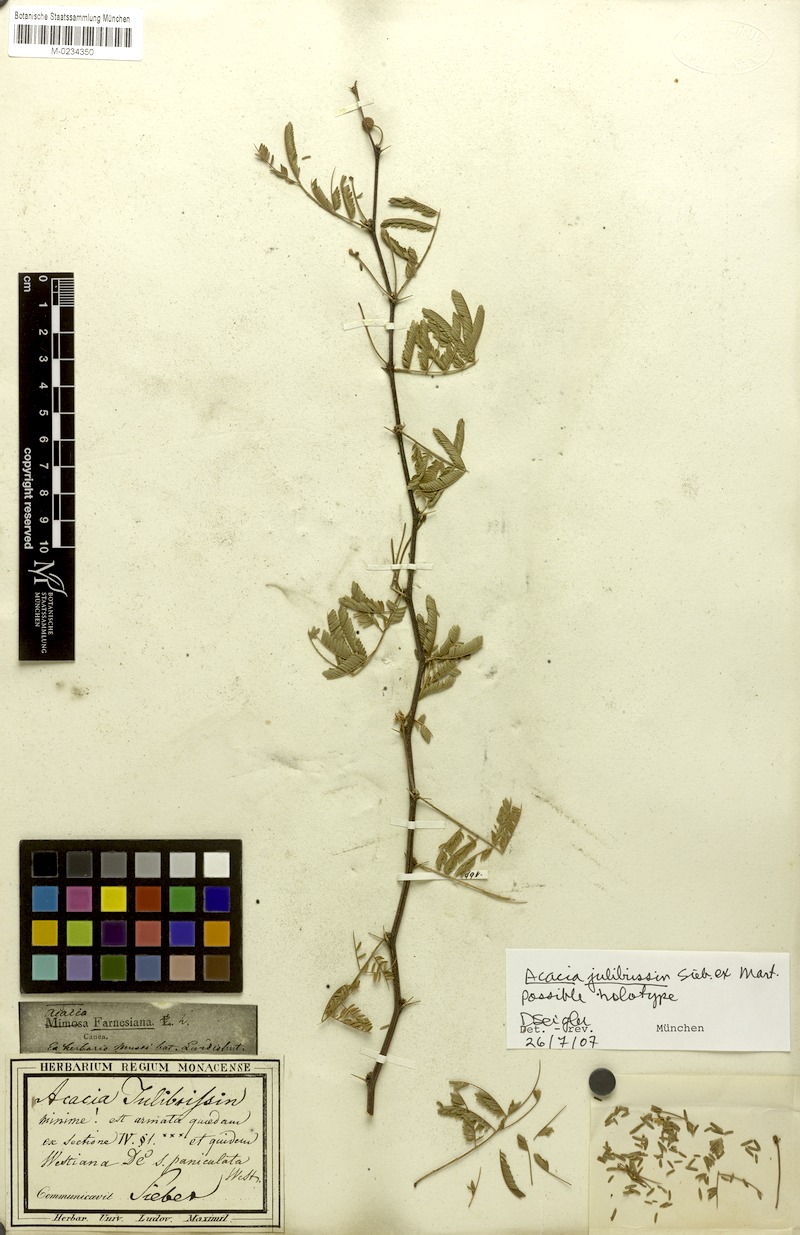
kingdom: Plantae
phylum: Tracheophyta
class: Magnoliopsida
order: Fabales
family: Fabaceae
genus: Senegalia
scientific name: Senegalia tenuifolia
